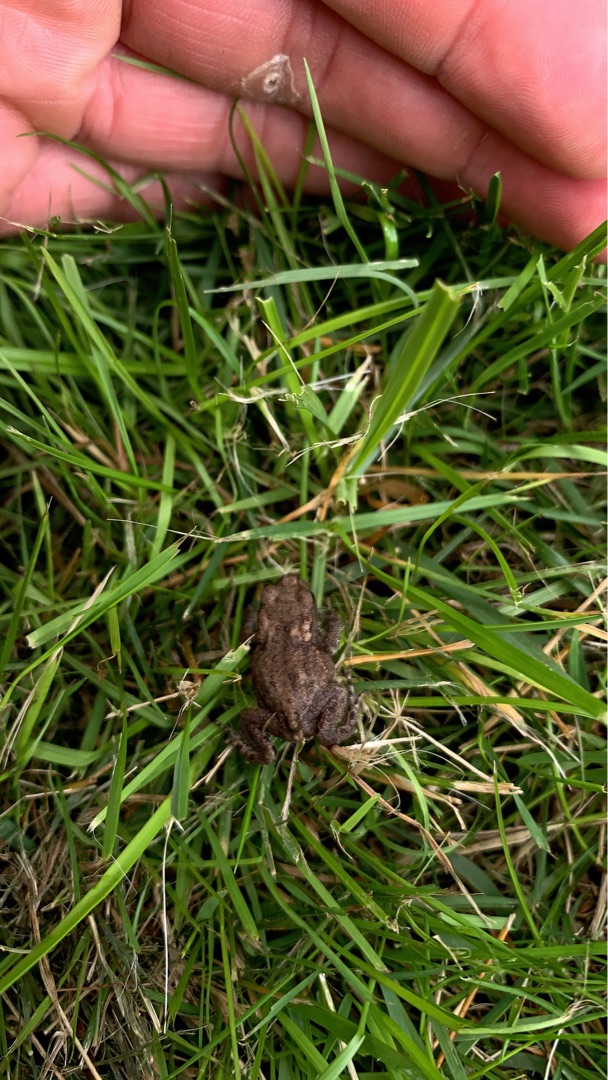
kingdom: Animalia
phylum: Chordata
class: Amphibia
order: Anura
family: Bufonidae
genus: Bufo
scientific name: Bufo bufo
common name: Skrubtudse
